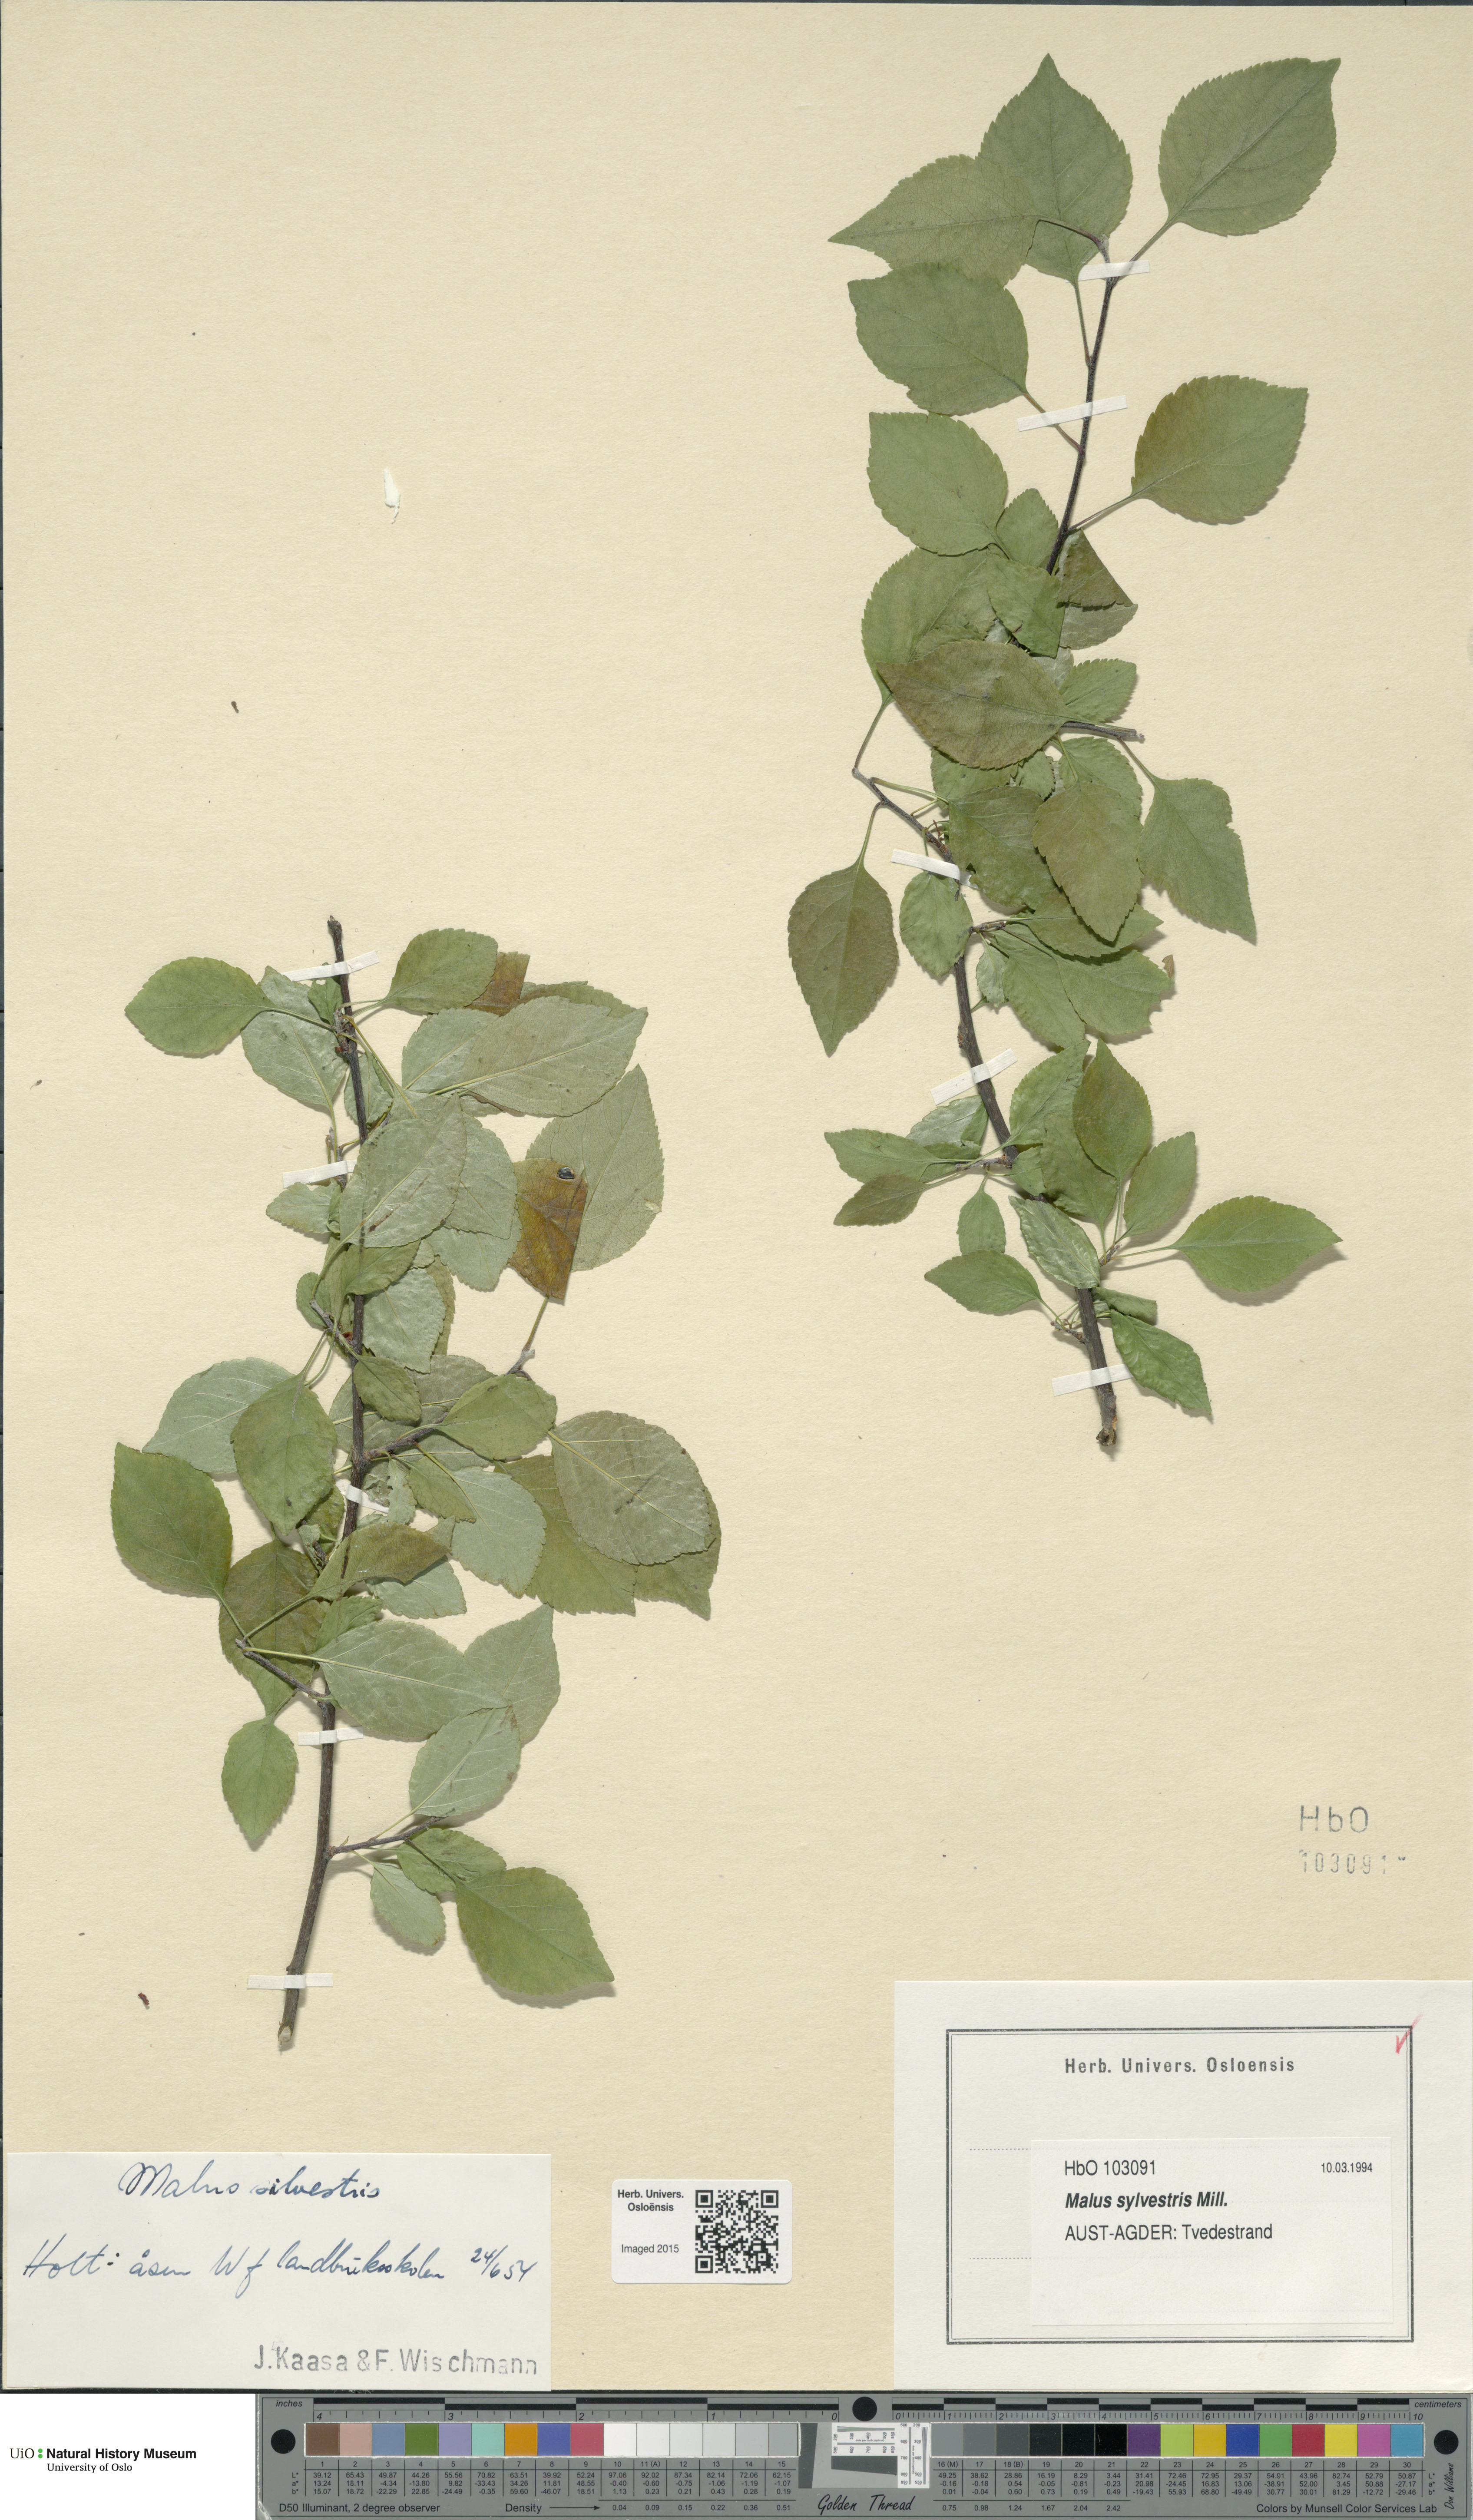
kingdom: Plantae
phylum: Tracheophyta
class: Magnoliopsida
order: Rosales
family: Rosaceae
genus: Malus
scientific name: Malus sylvestris
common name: Crab apple
